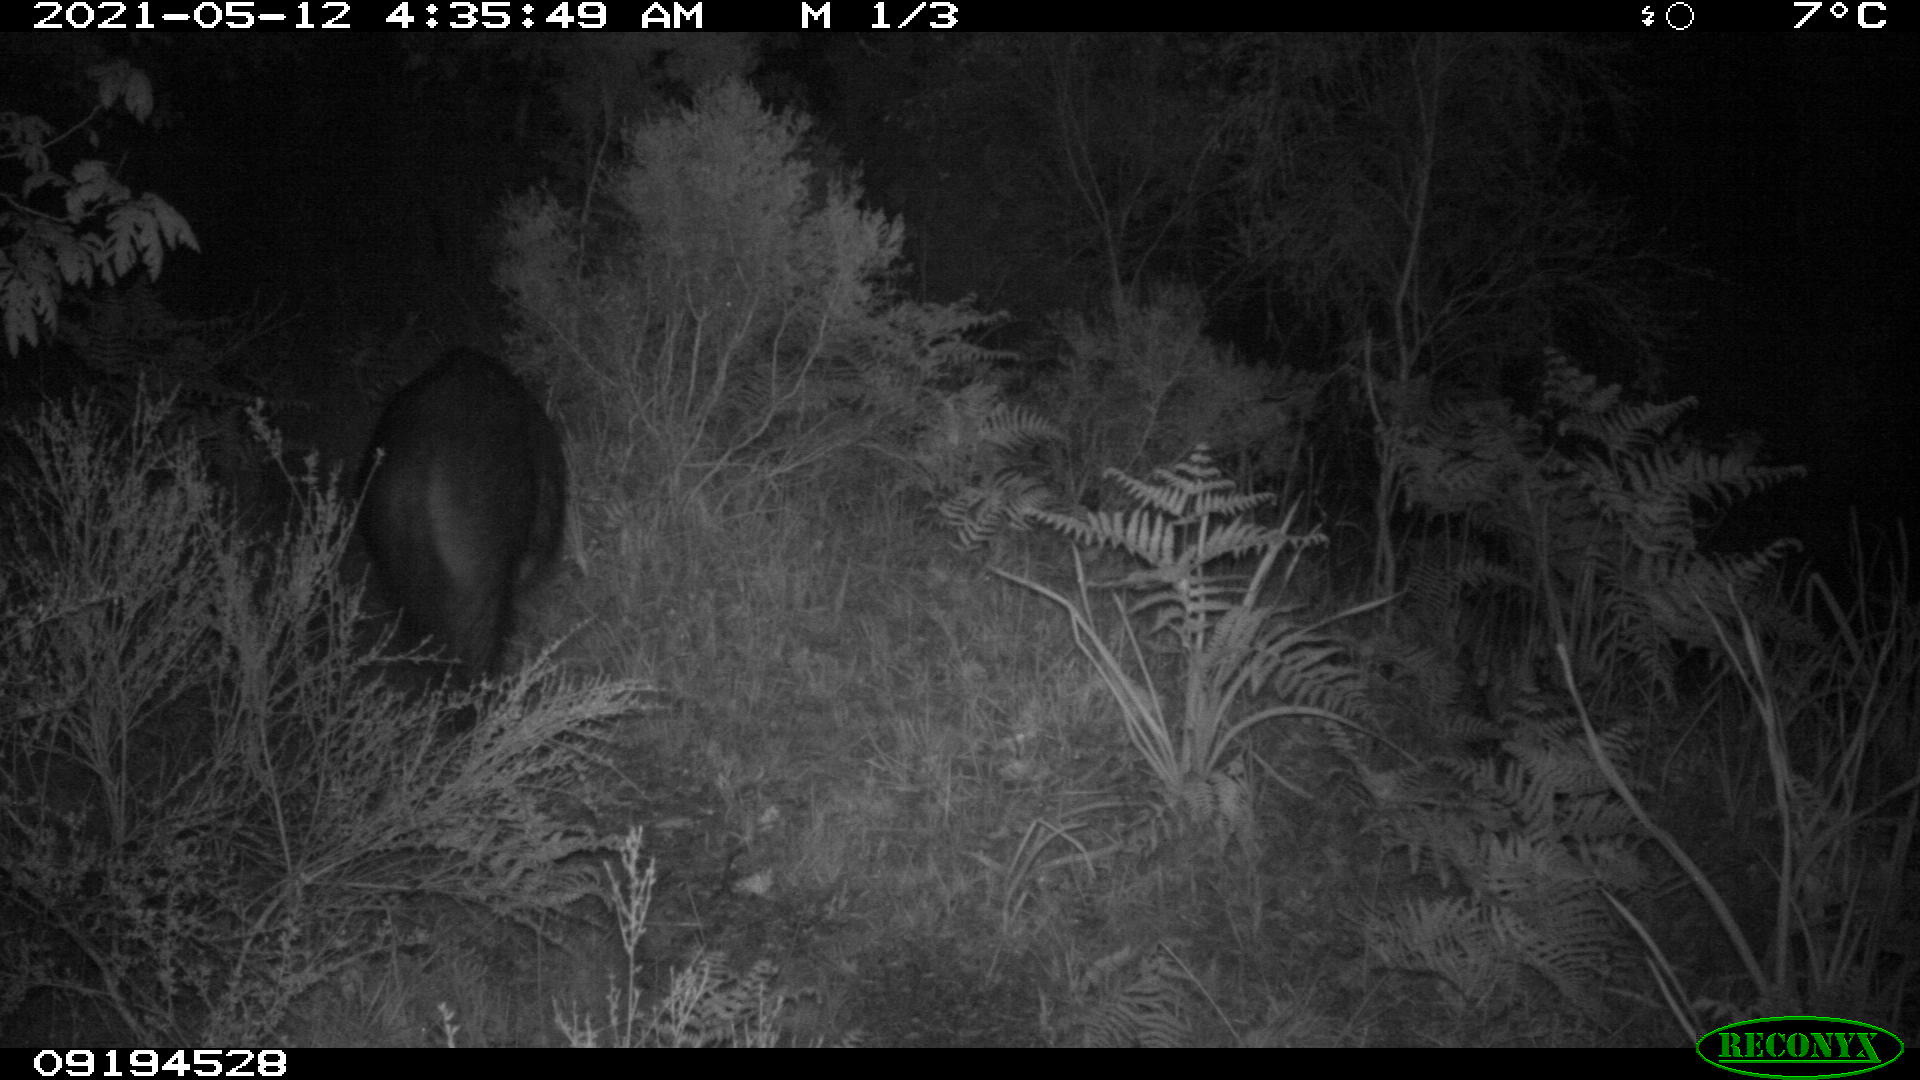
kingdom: Animalia
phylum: Chordata
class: Mammalia
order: Artiodactyla
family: Suidae
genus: Sus
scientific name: Sus scrofa
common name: Wild boar
